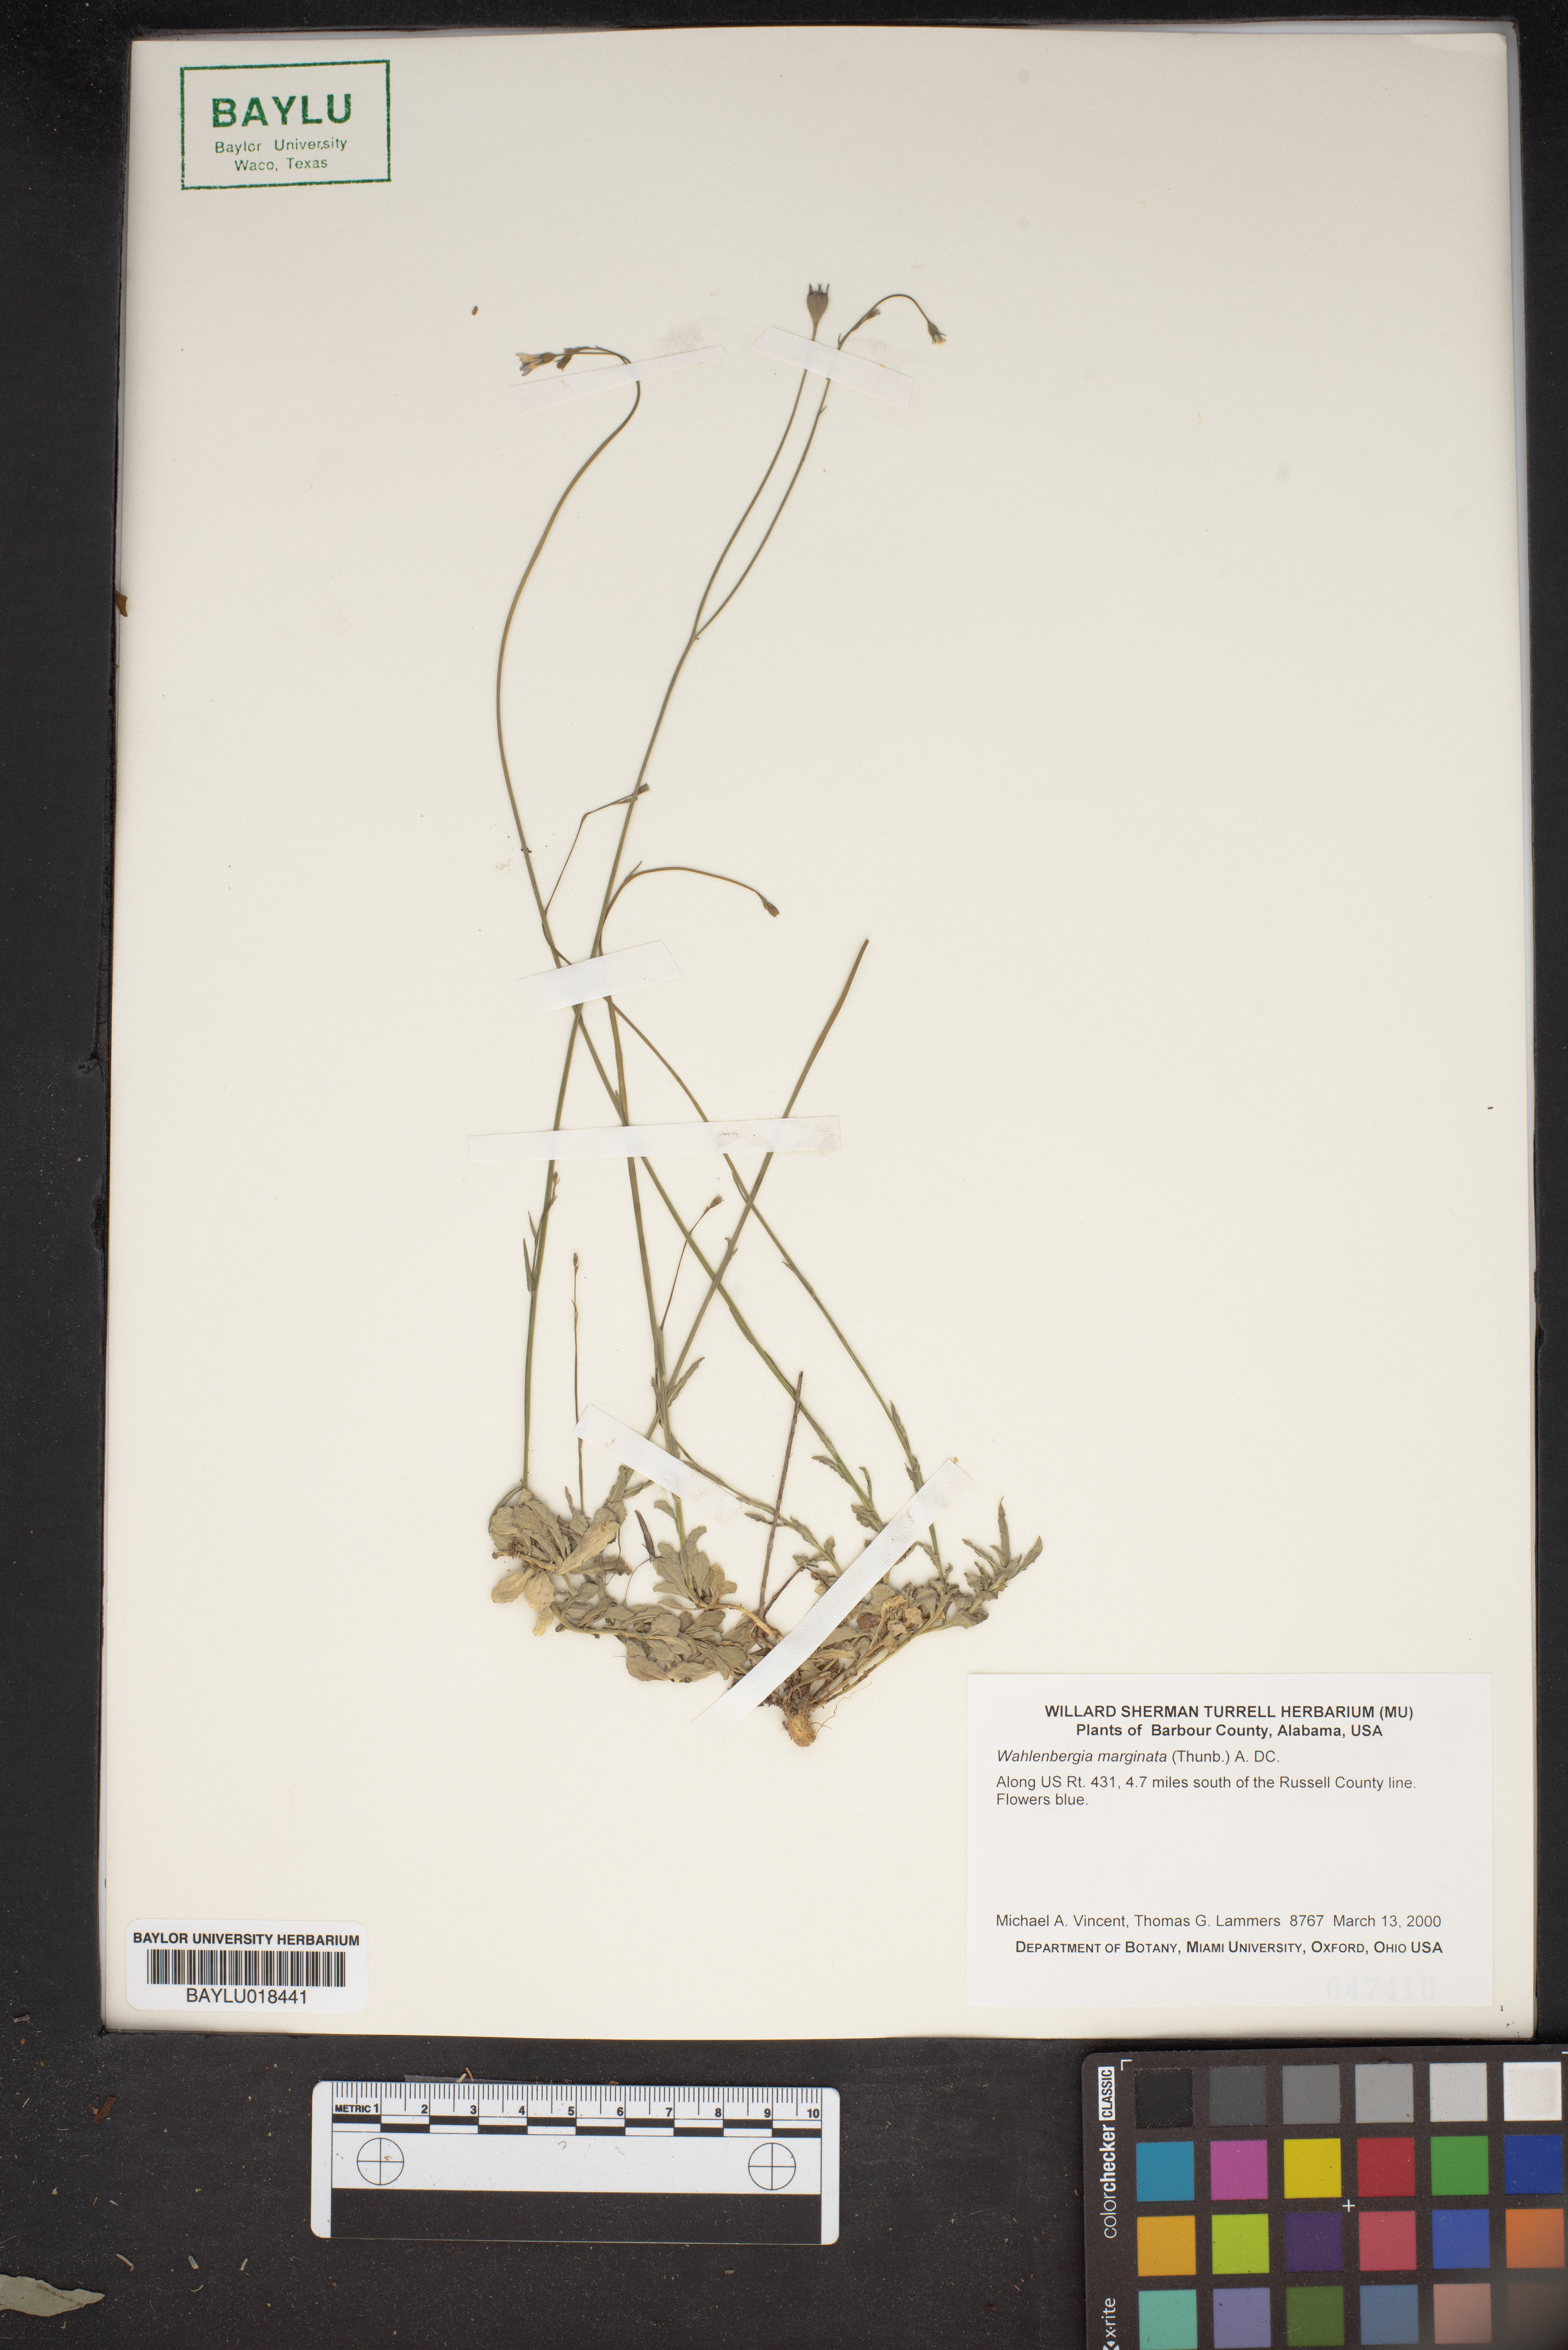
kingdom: Plantae
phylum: Tracheophyta
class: Magnoliopsida
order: Asterales
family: Campanulaceae
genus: Wahlenbergia
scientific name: Wahlenbergia marginata
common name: Southern rockbell
